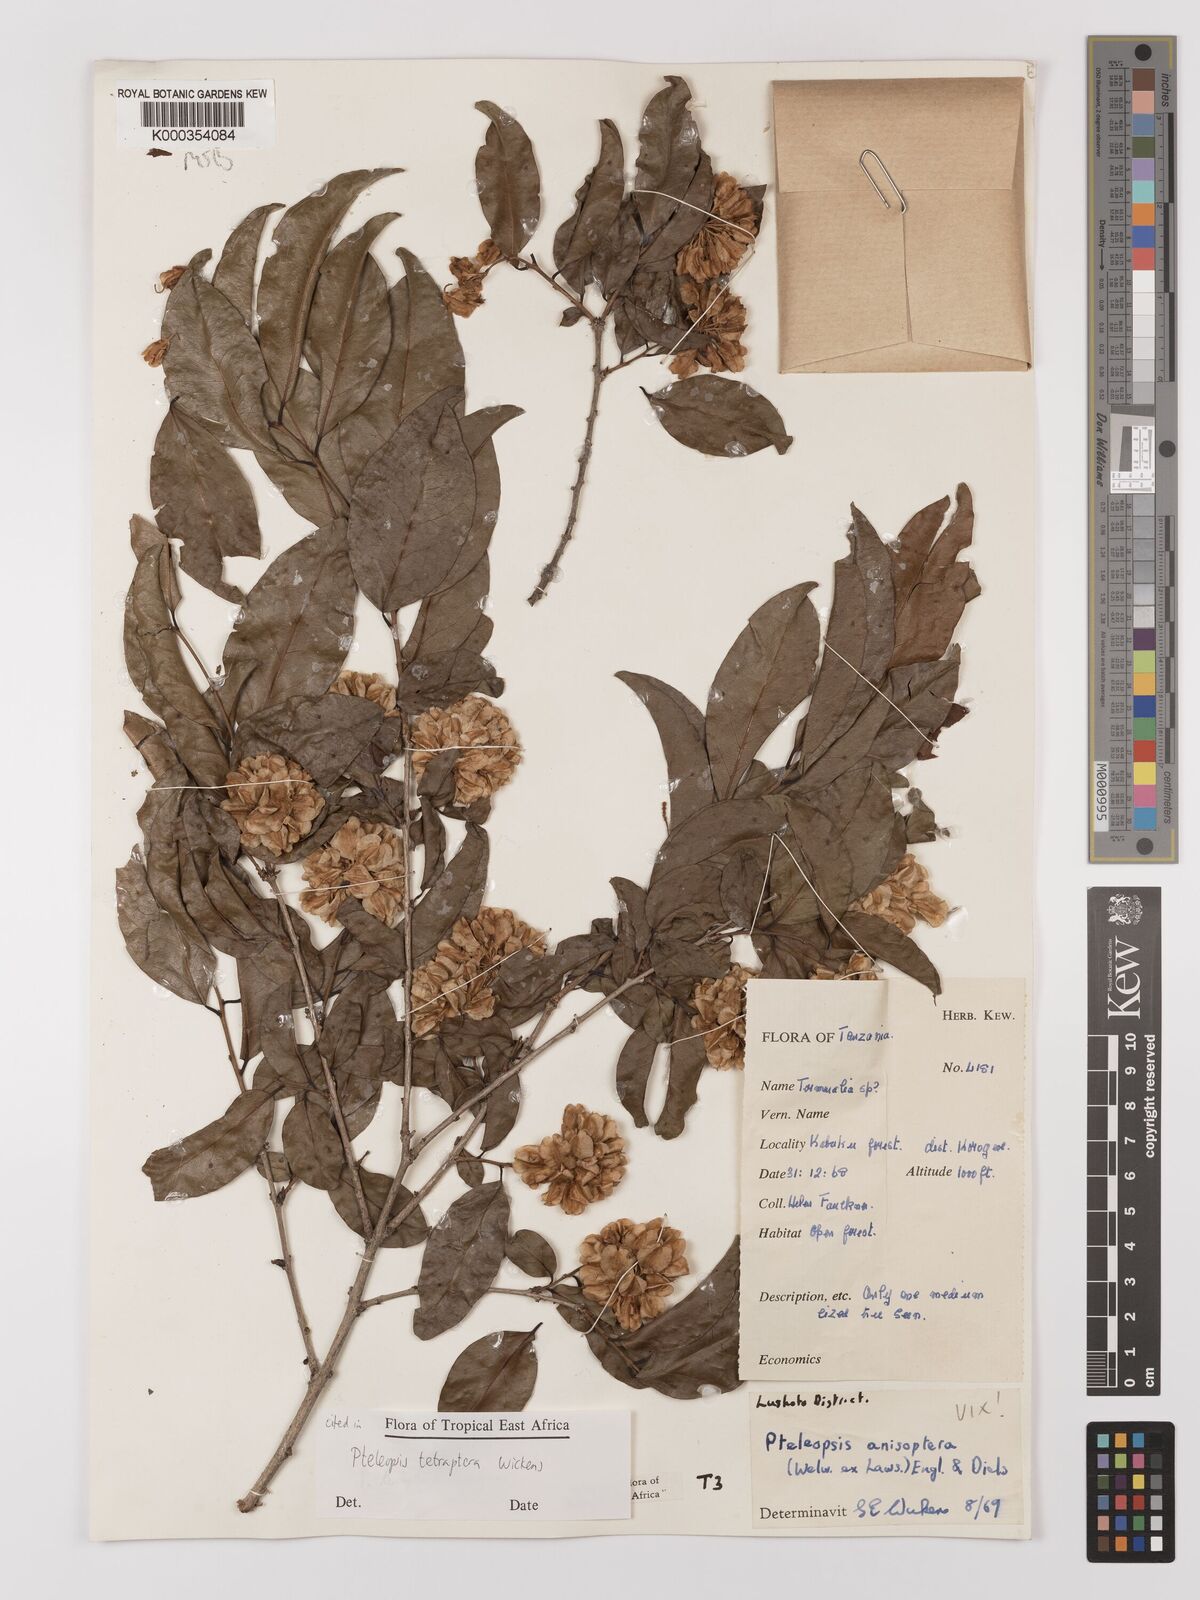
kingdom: Plantae
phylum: Tracheophyta
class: Magnoliopsida
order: Myrtales
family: Combretaceae
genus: Terminalia
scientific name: Terminalia tetraptera
